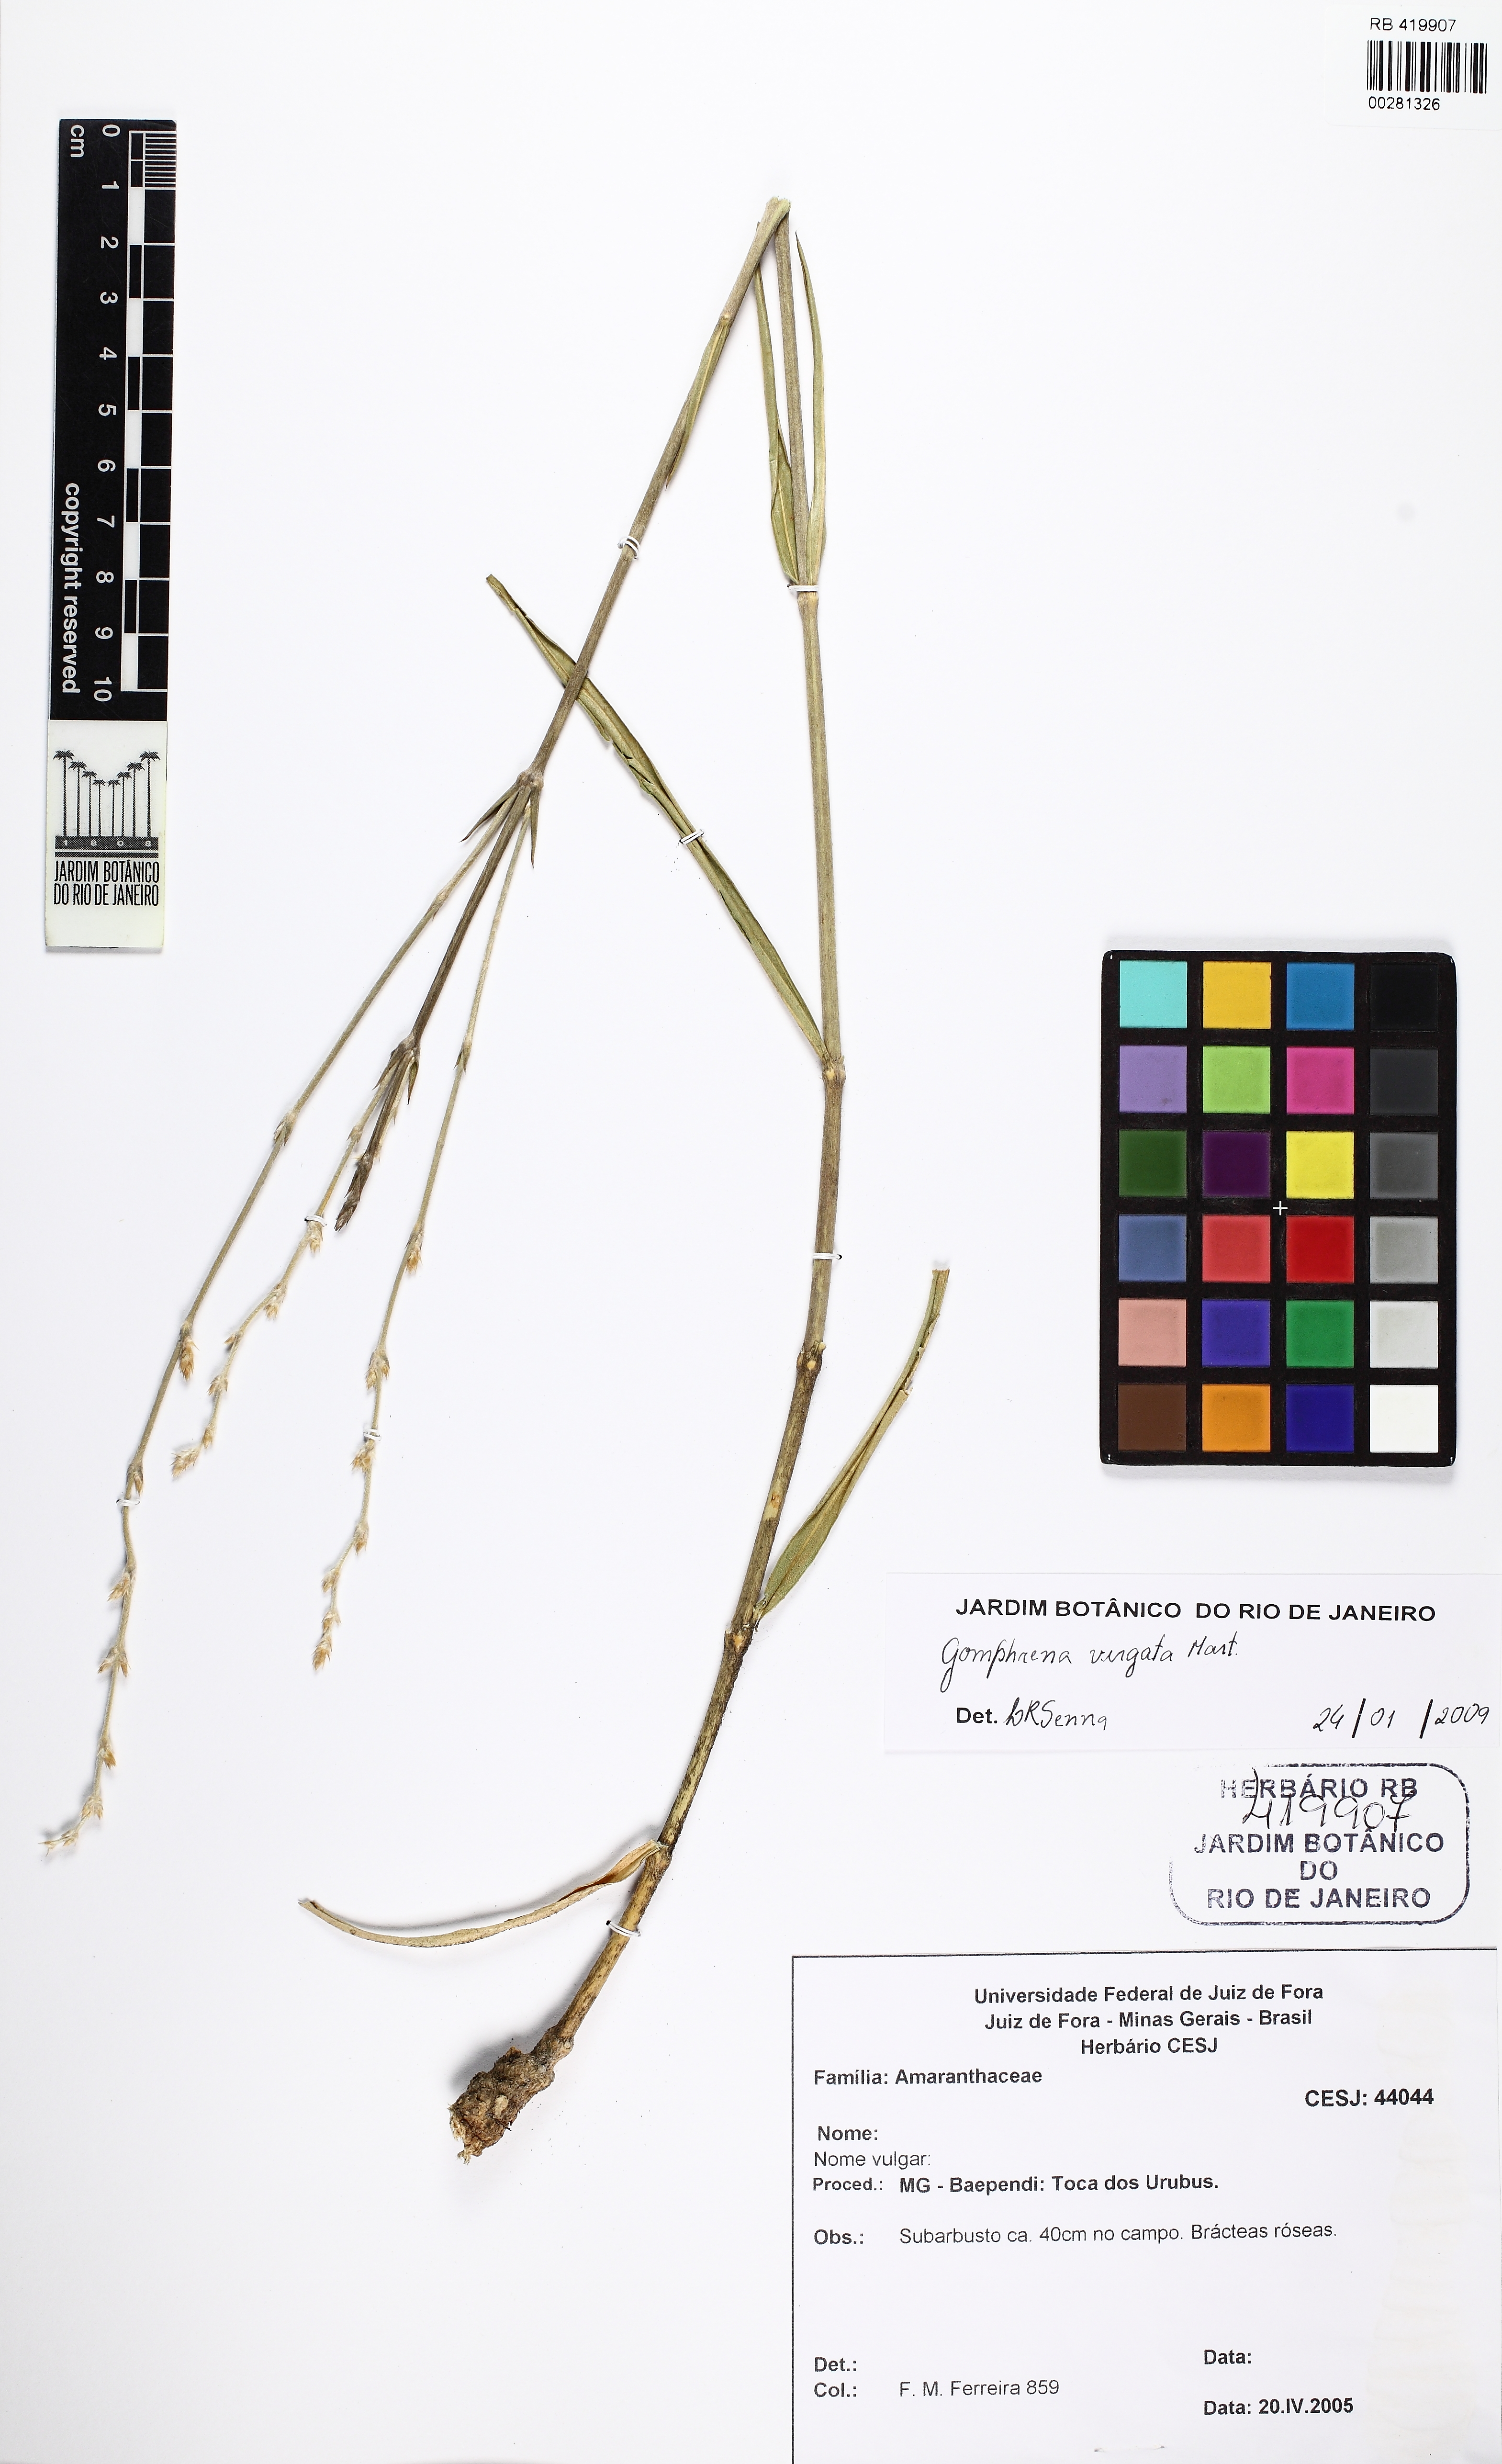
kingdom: Plantae
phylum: Tracheophyta
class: Magnoliopsida
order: Caryophyllales
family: Amaranthaceae
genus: Gomphrena
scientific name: Gomphrena virgata
